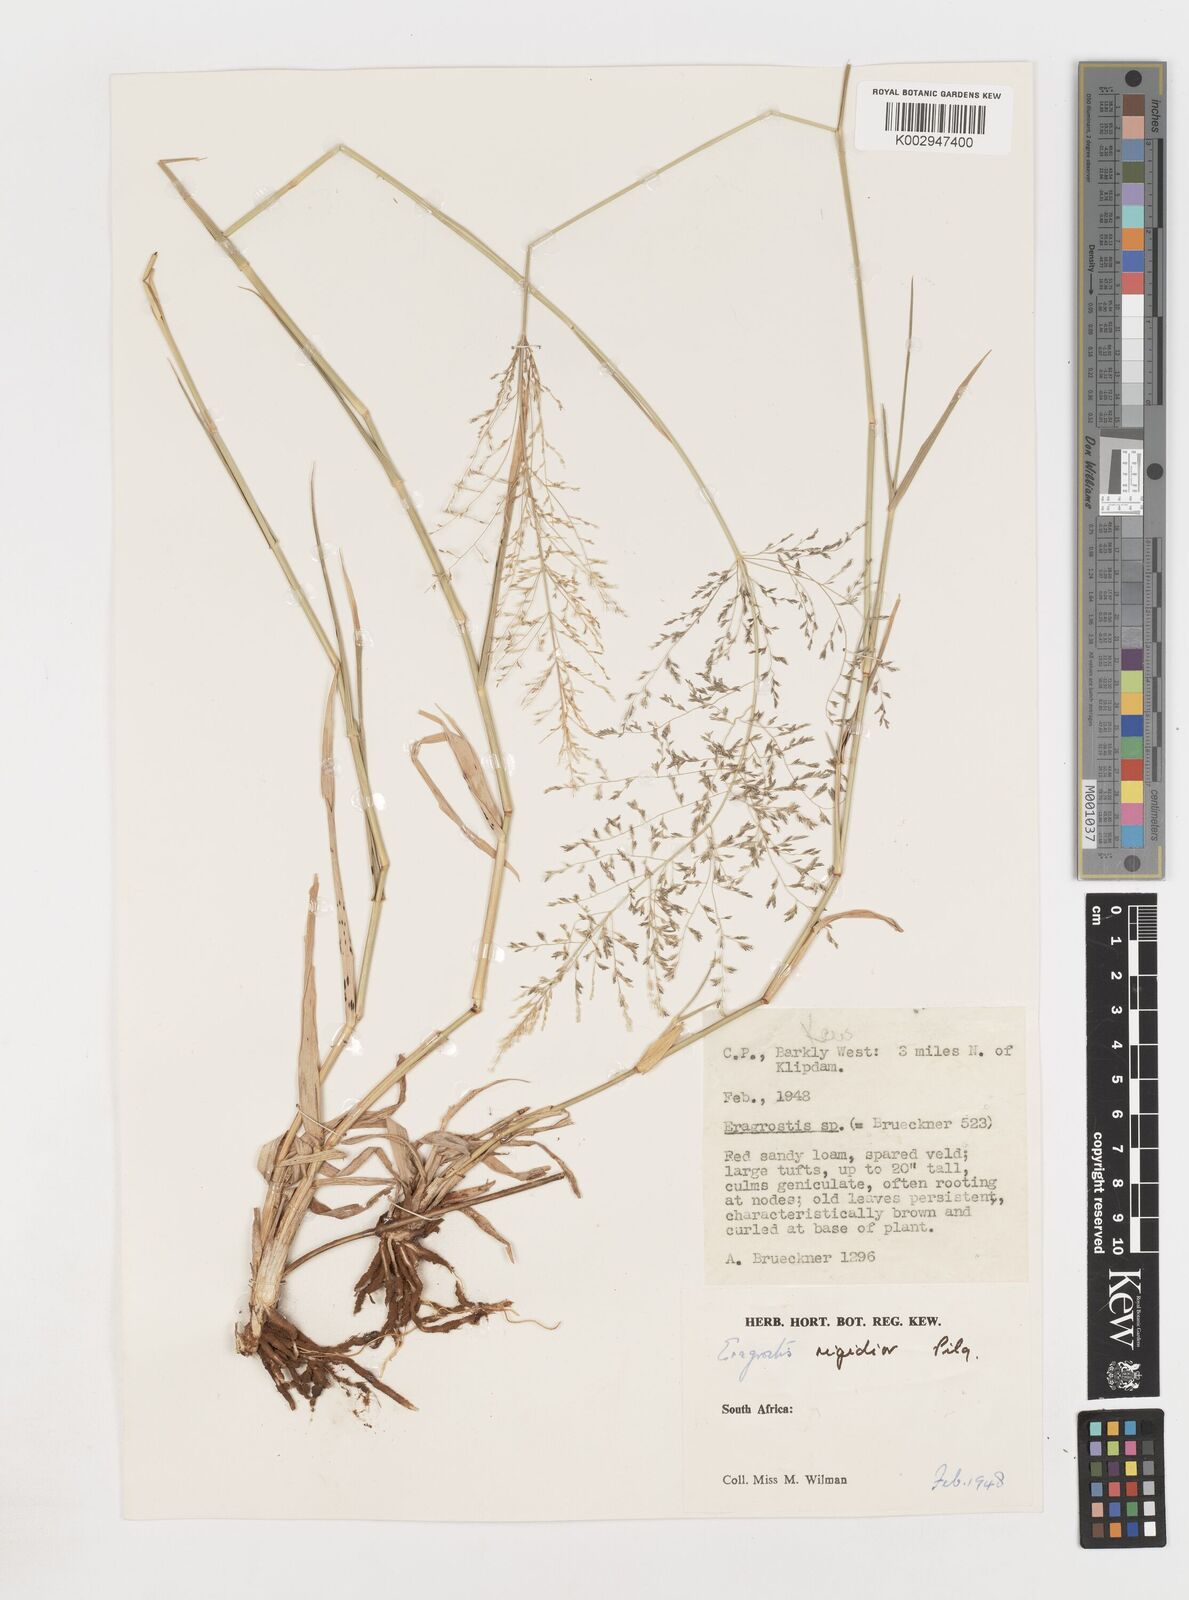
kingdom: Plantae
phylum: Tracheophyta
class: Liliopsida
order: Poales
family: Poaceae
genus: Eragrostis
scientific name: Eragrostis
